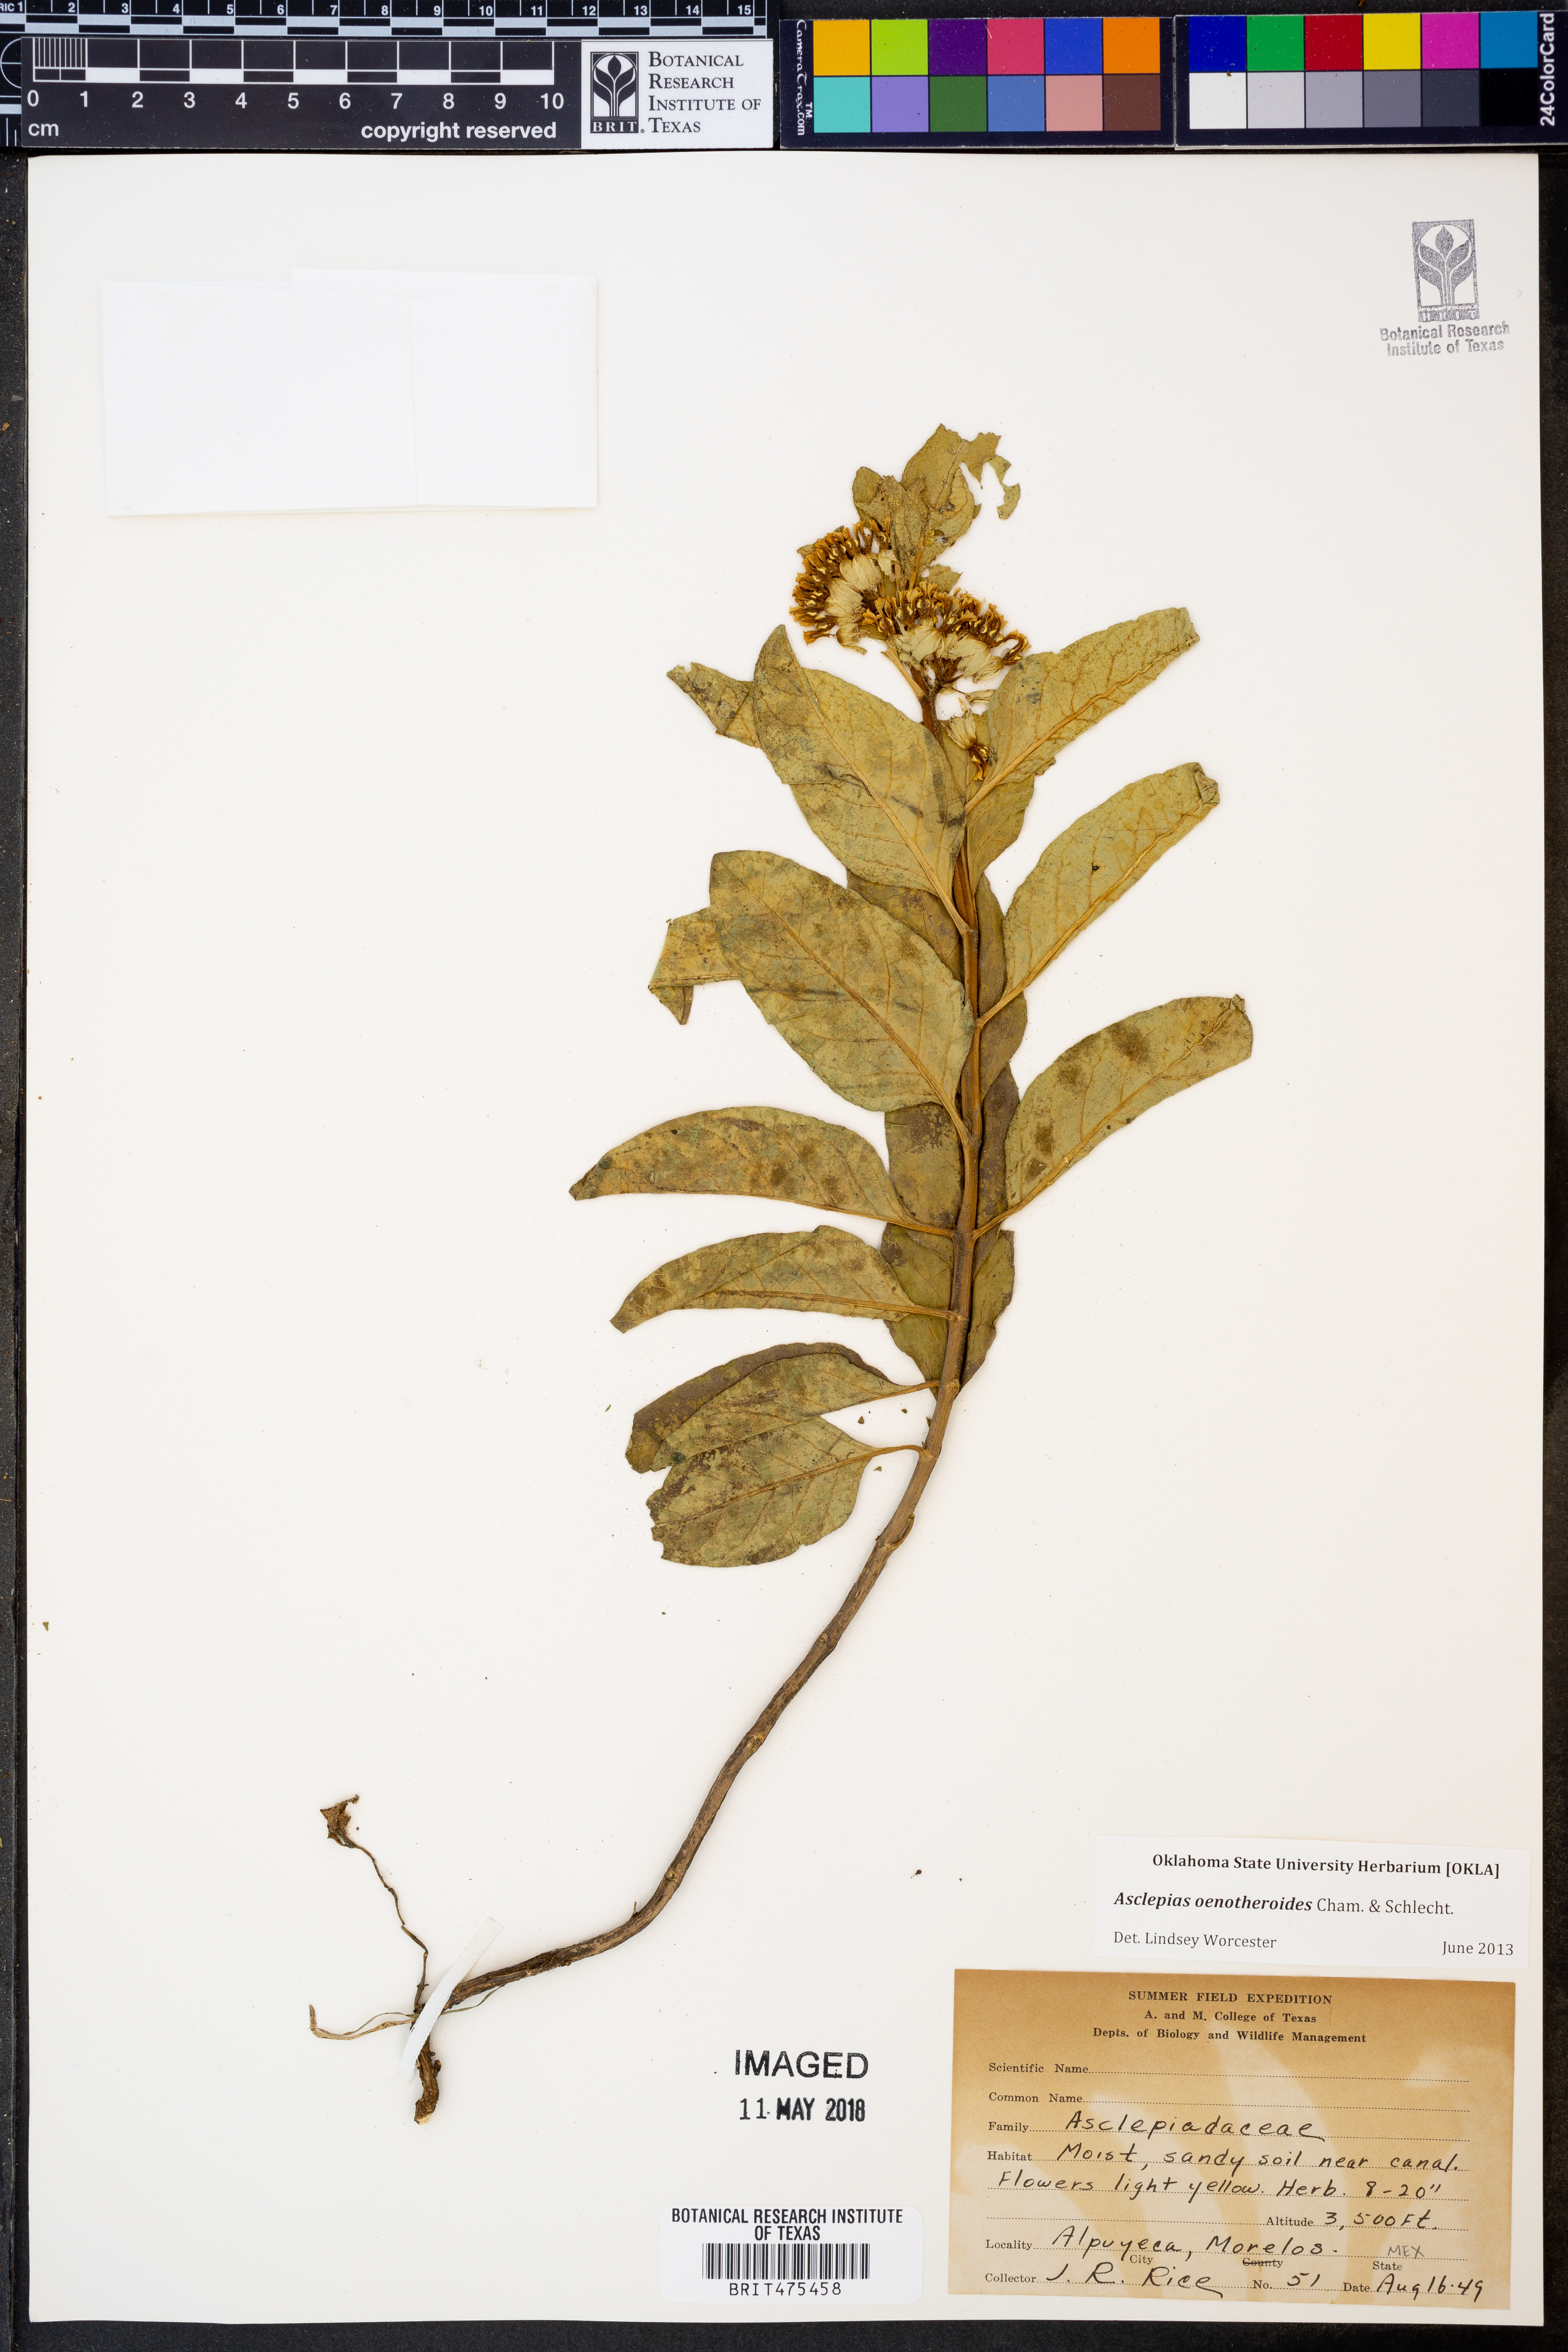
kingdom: Plantae
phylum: Tracheophyta
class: Magnoliopsida
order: Gentianales
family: Apocynaceae
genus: Asclepias
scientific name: Asclepias oenotheroides
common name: Zizotes milkweed
